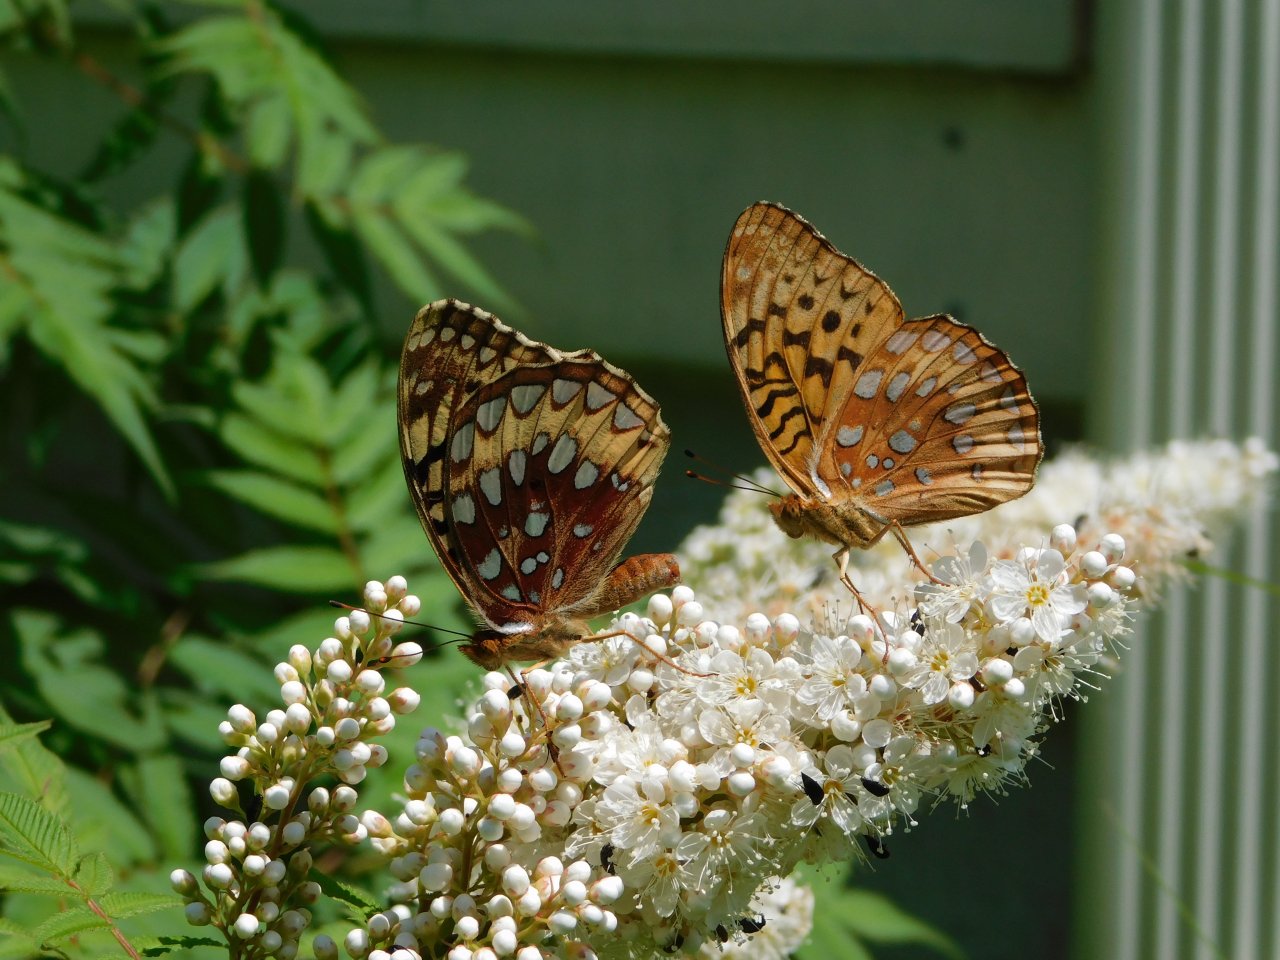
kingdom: Animalia
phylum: Arthropoda
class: Insecta
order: Lepidoptera
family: Nymphalidae
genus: Speyeria
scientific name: Speyeria cybele
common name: Great Spangled Fritillary
